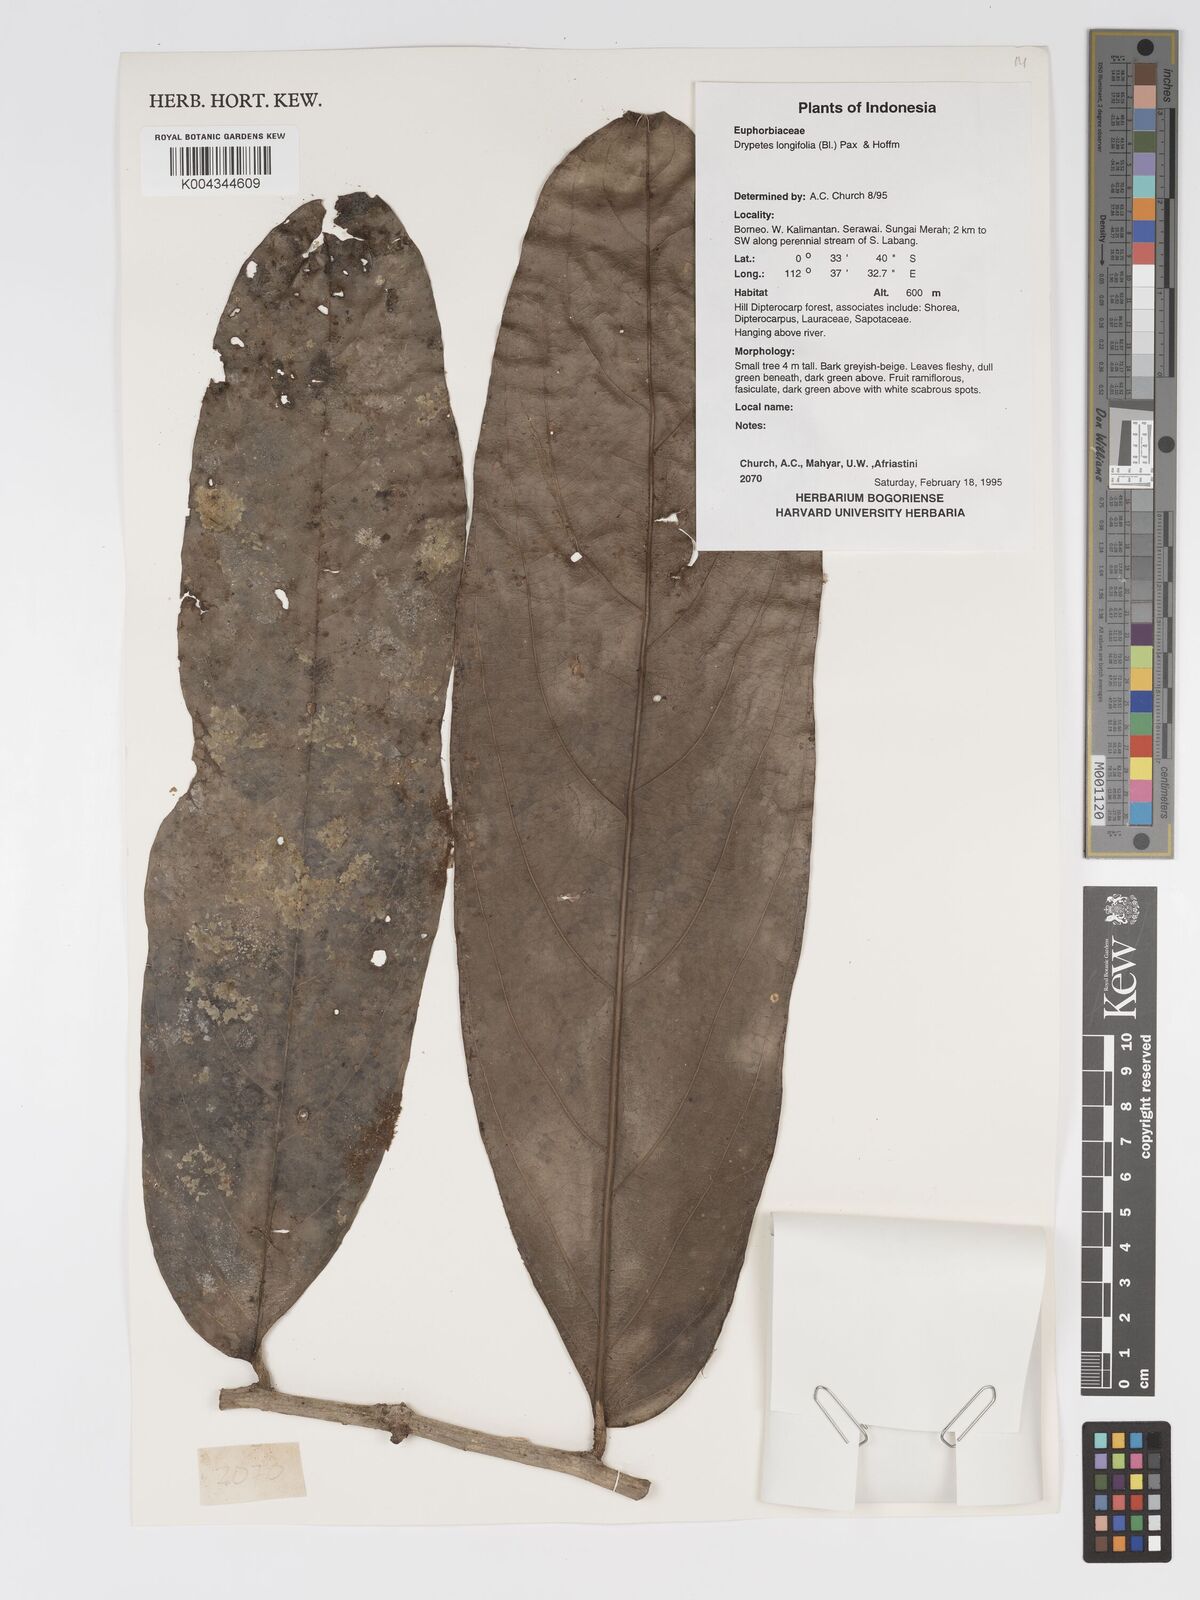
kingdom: Plantae
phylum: Tracheophyta
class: Magnoliopsida
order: Malpighiales
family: Putranjivaceae
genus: Drypetes
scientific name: Drypetes longifolia
